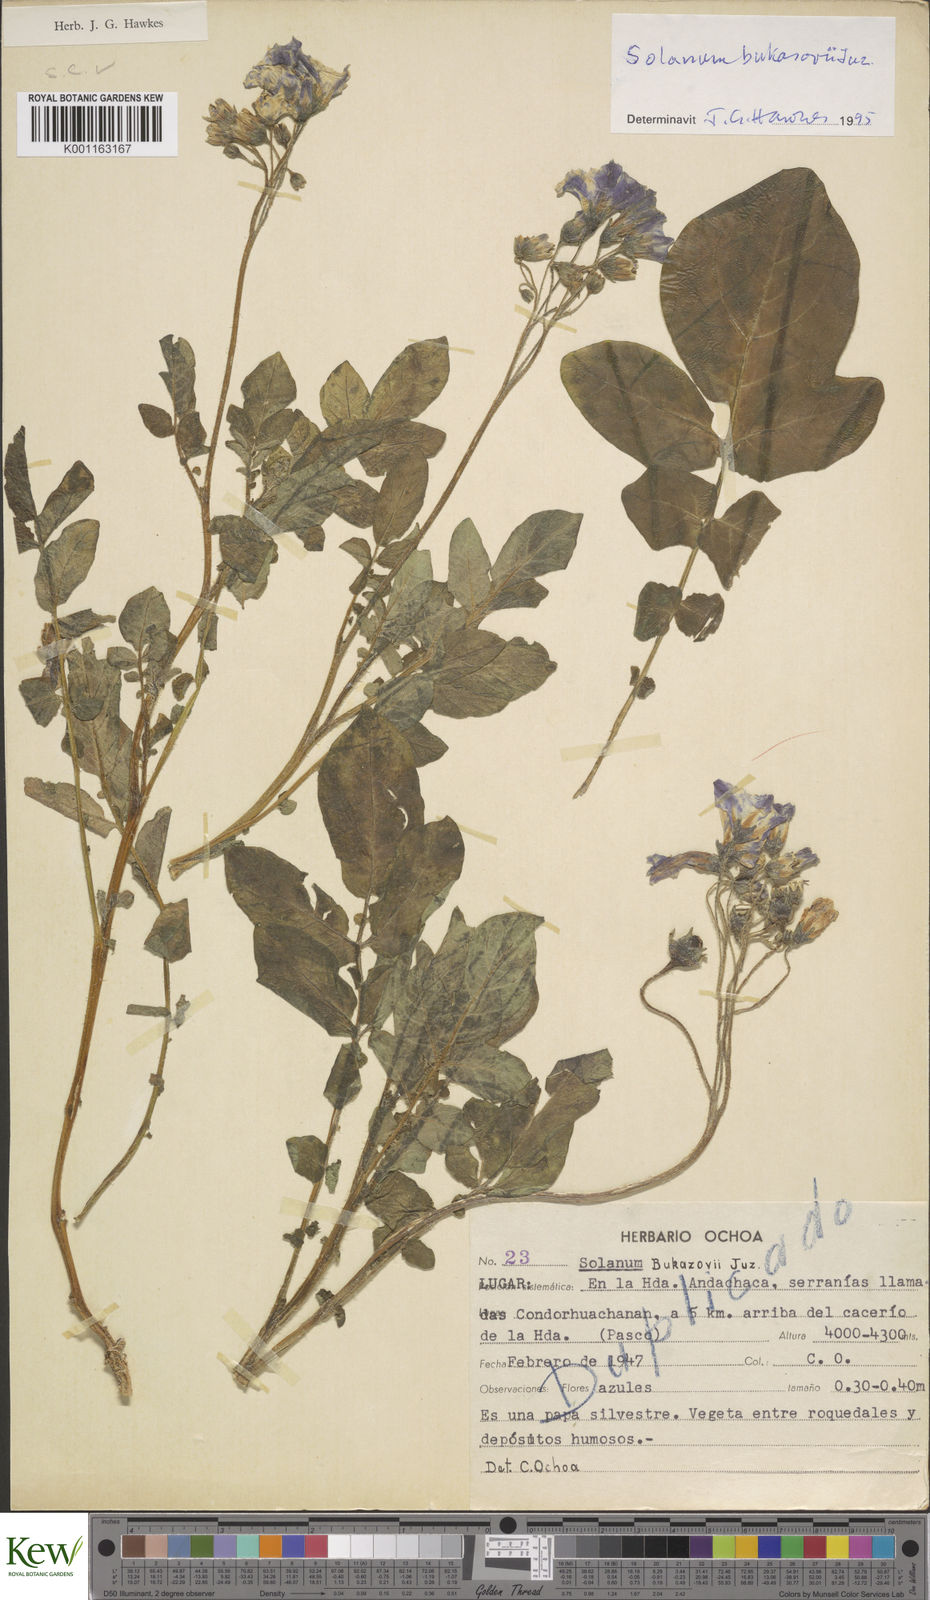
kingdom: Plantae
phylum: Tracheophyta
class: Magnoliopsida
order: Solanales
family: Solanaceae
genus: Solanum
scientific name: Solanum candolleanum
